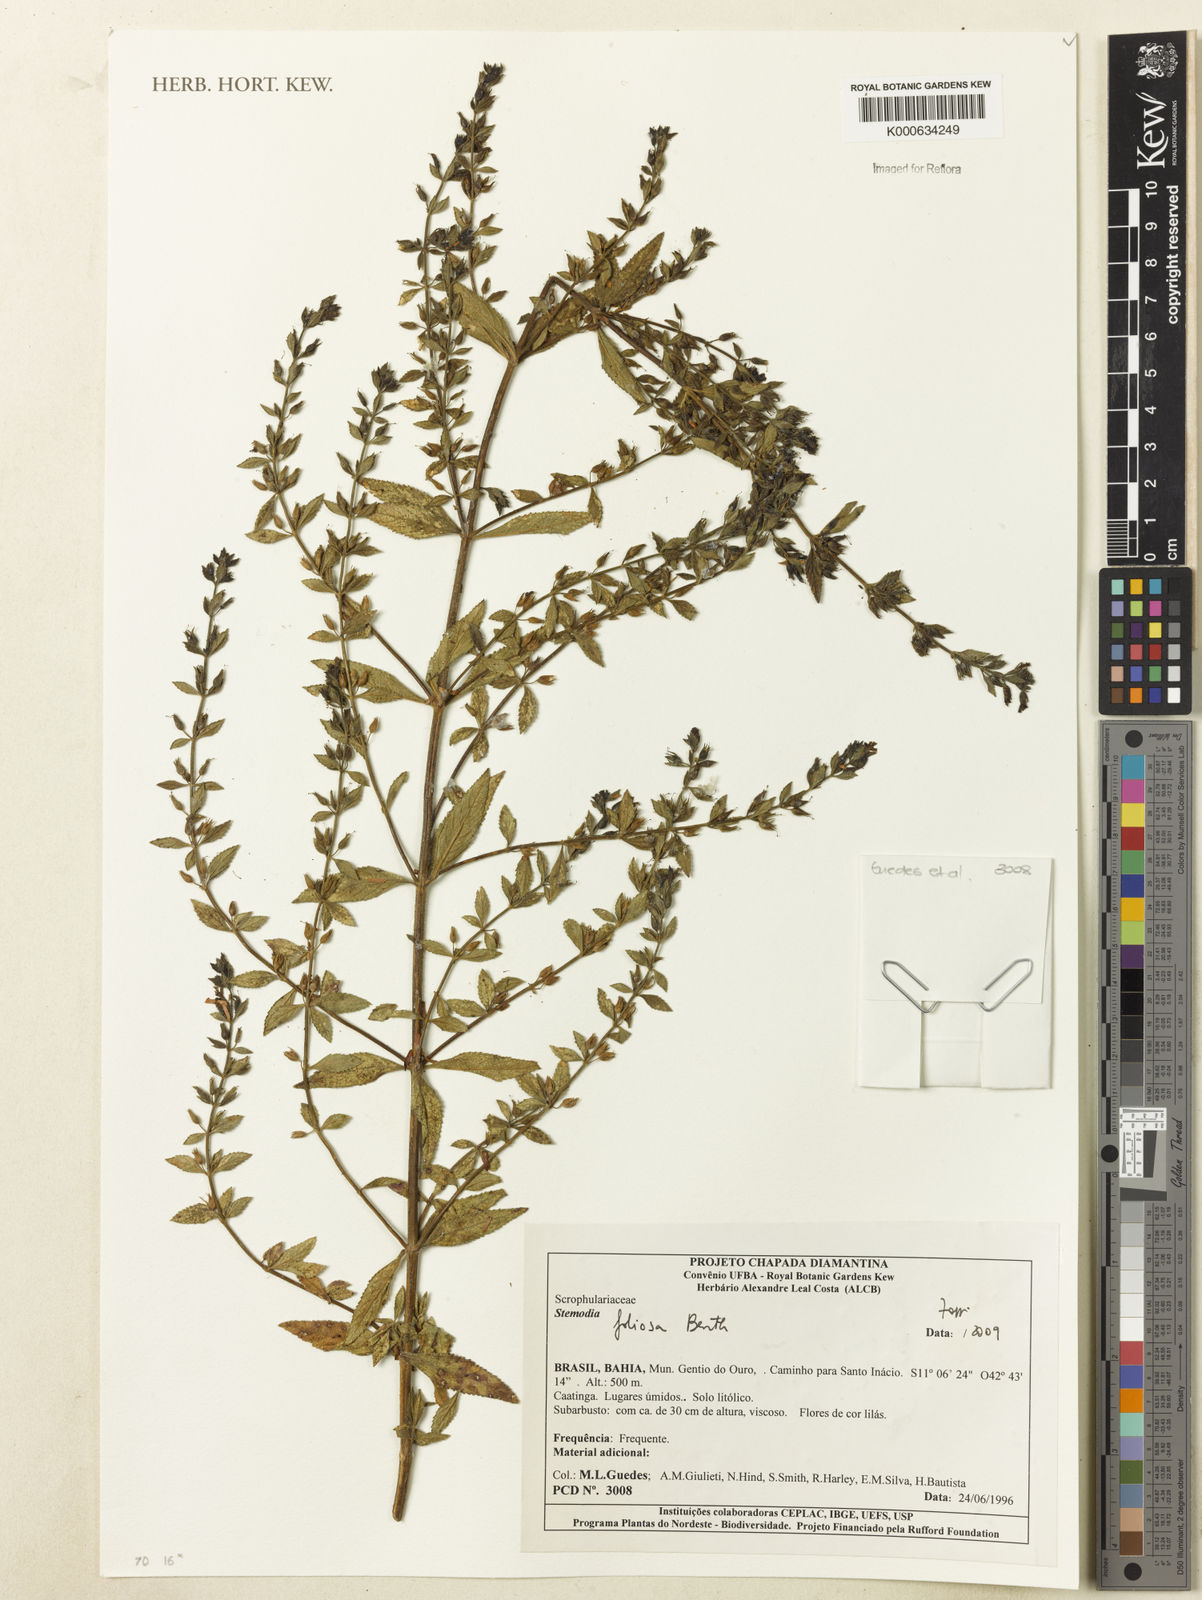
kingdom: Plantae
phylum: Tracheophyta
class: Magnoliopsida
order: Lamiales
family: Plantaginaceae
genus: Stemodia
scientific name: Stemodia foliosa
